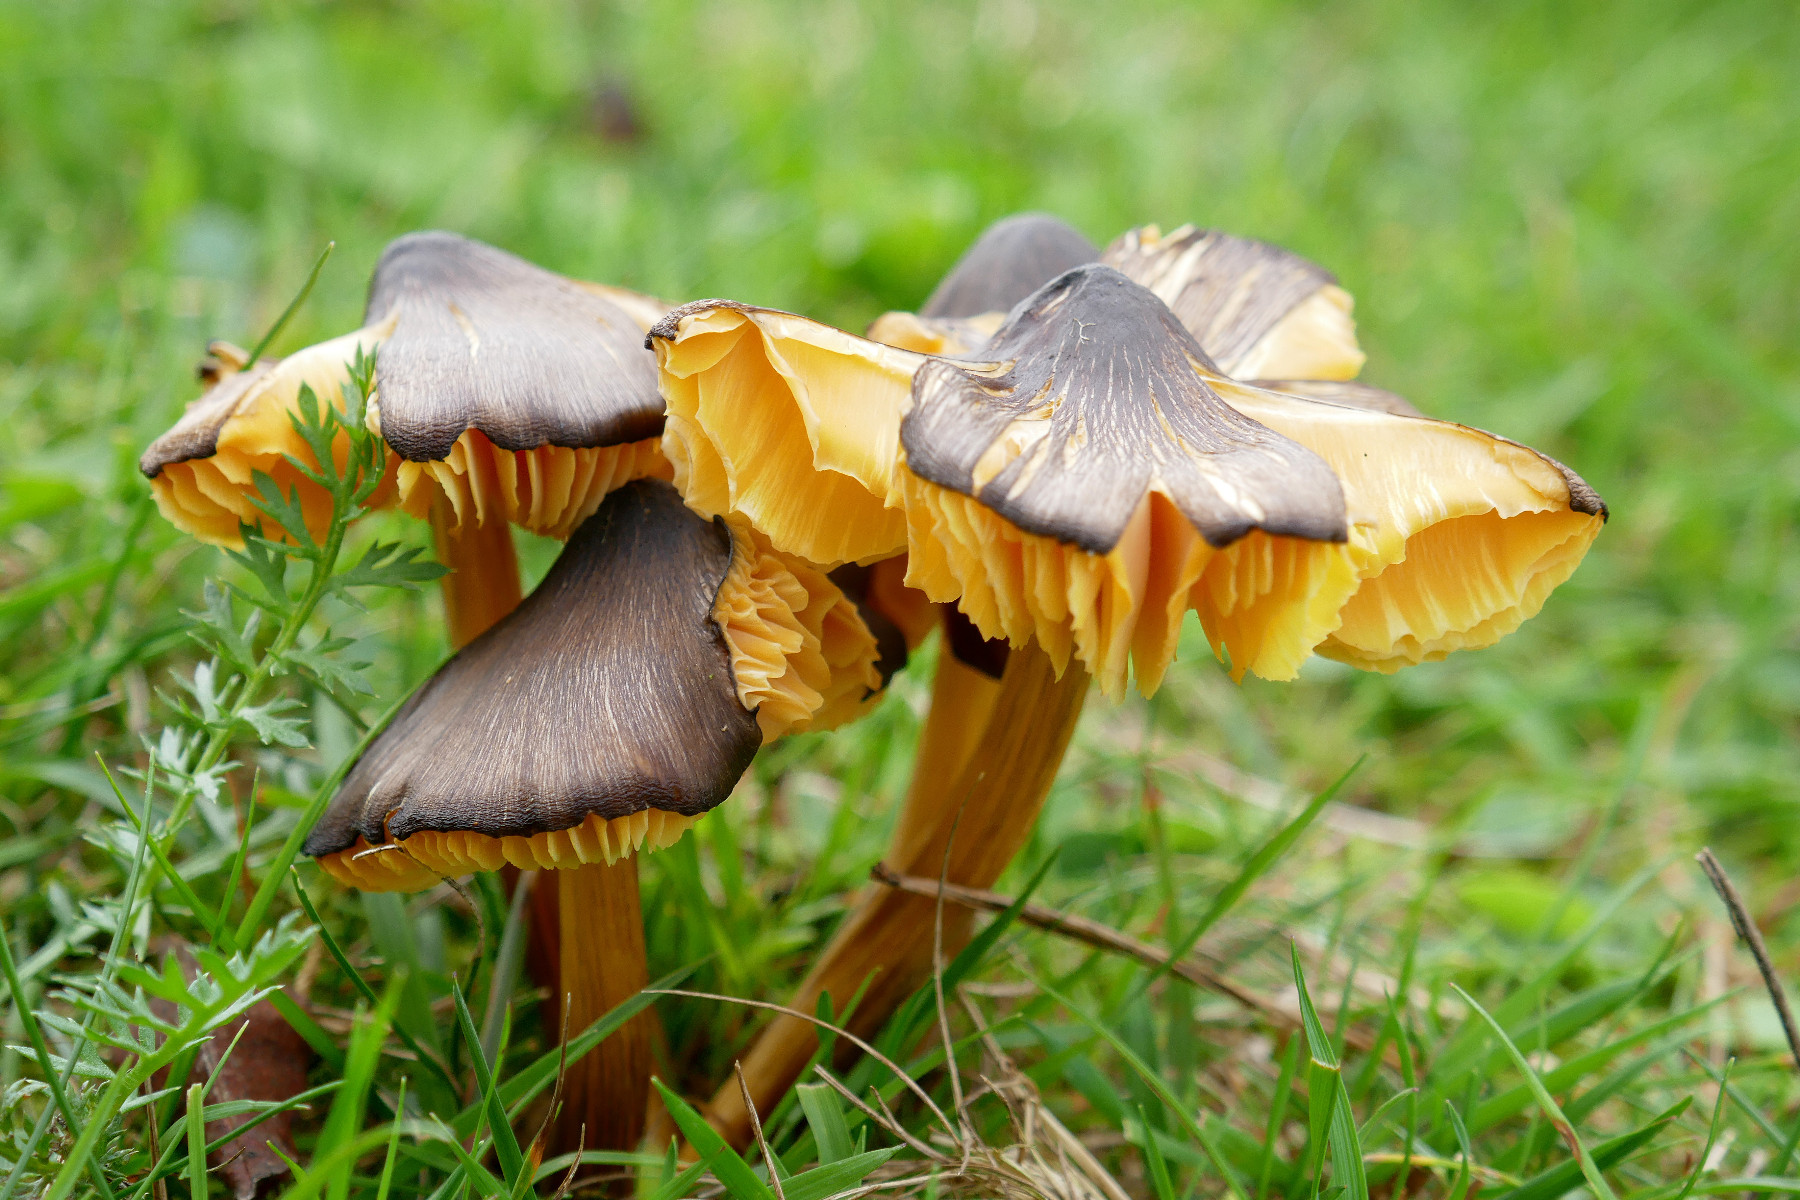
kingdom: Fungi
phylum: Basidiomycota
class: Agaricomycetes
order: Agaricales
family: Hygrophoraceae
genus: Hygrocybe
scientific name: Hygrocybe spadicea
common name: daddelbrun vokshat
